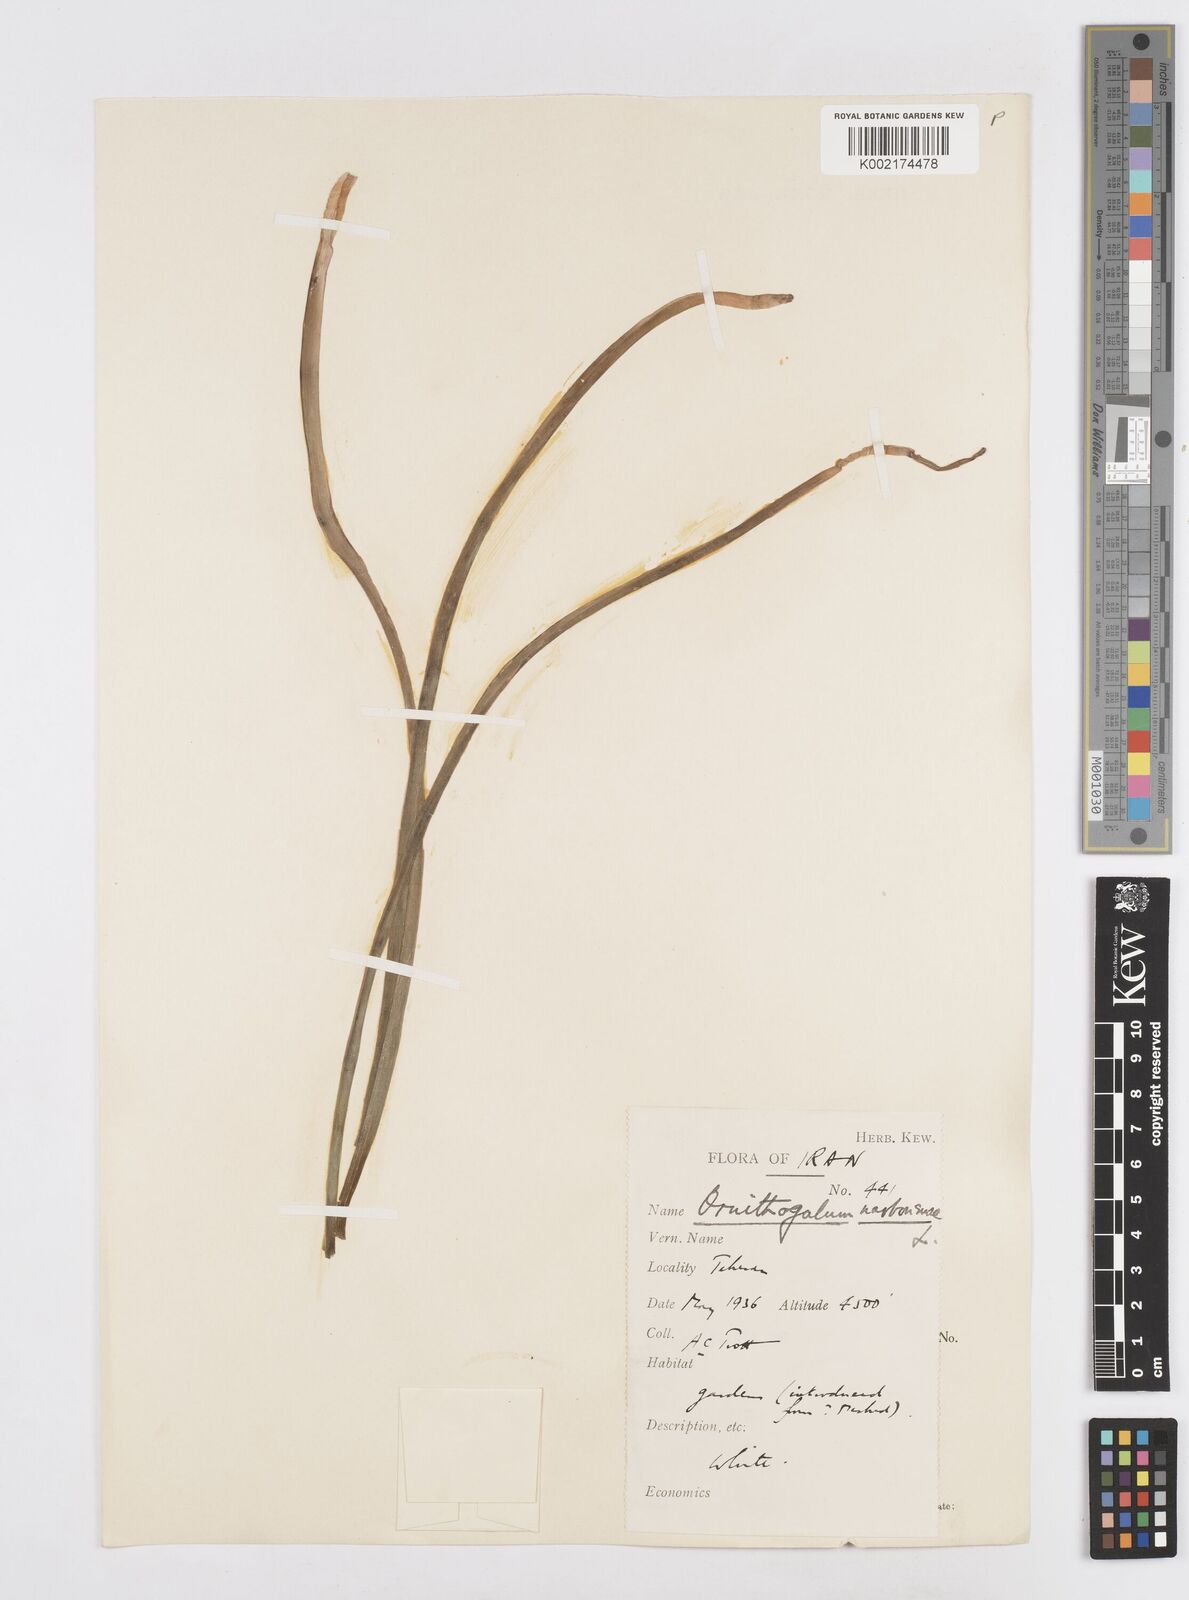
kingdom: Plantae
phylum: Tracheophyta
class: Liliopsida
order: Asparagales
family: Asparagaceae
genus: Ornithogalum
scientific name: Ornithogalum narbonense
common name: Bath-asparagus
